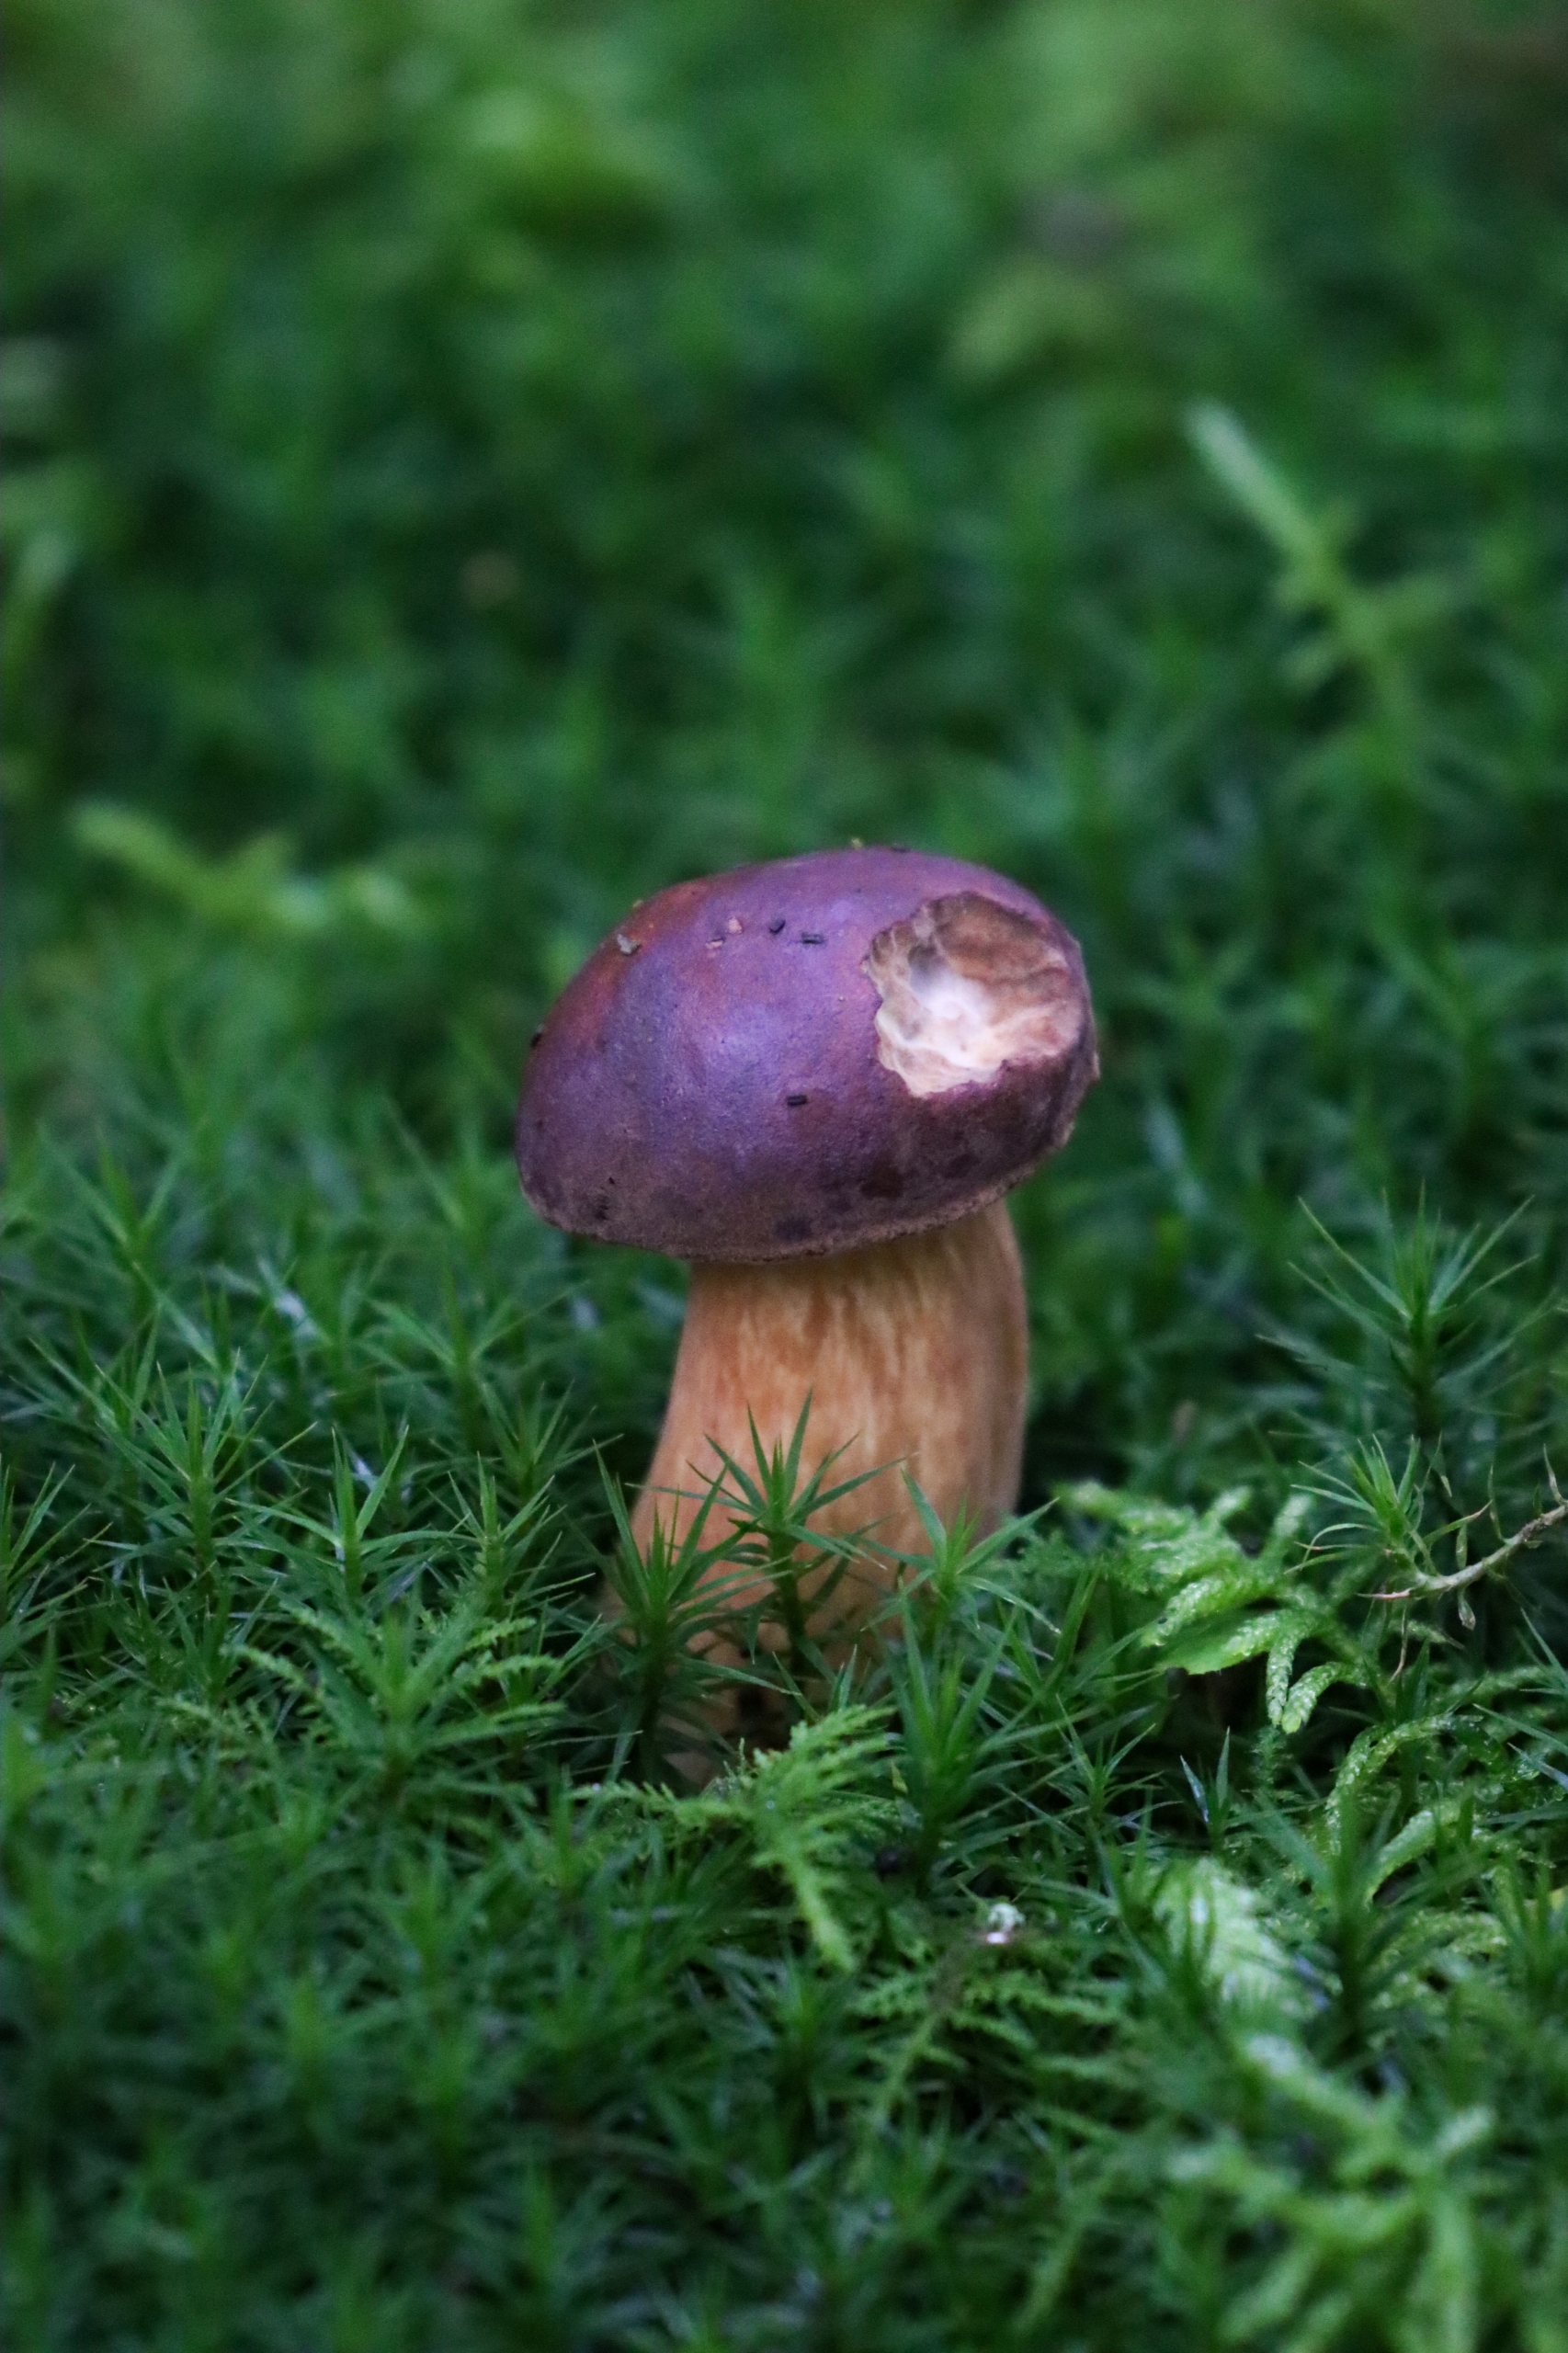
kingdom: Fungi
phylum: Basidiomycota
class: Agaricomycetes
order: Boletales
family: Boletaceae
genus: Imleria
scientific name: Imleria badia
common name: Brunstokket rørhat
